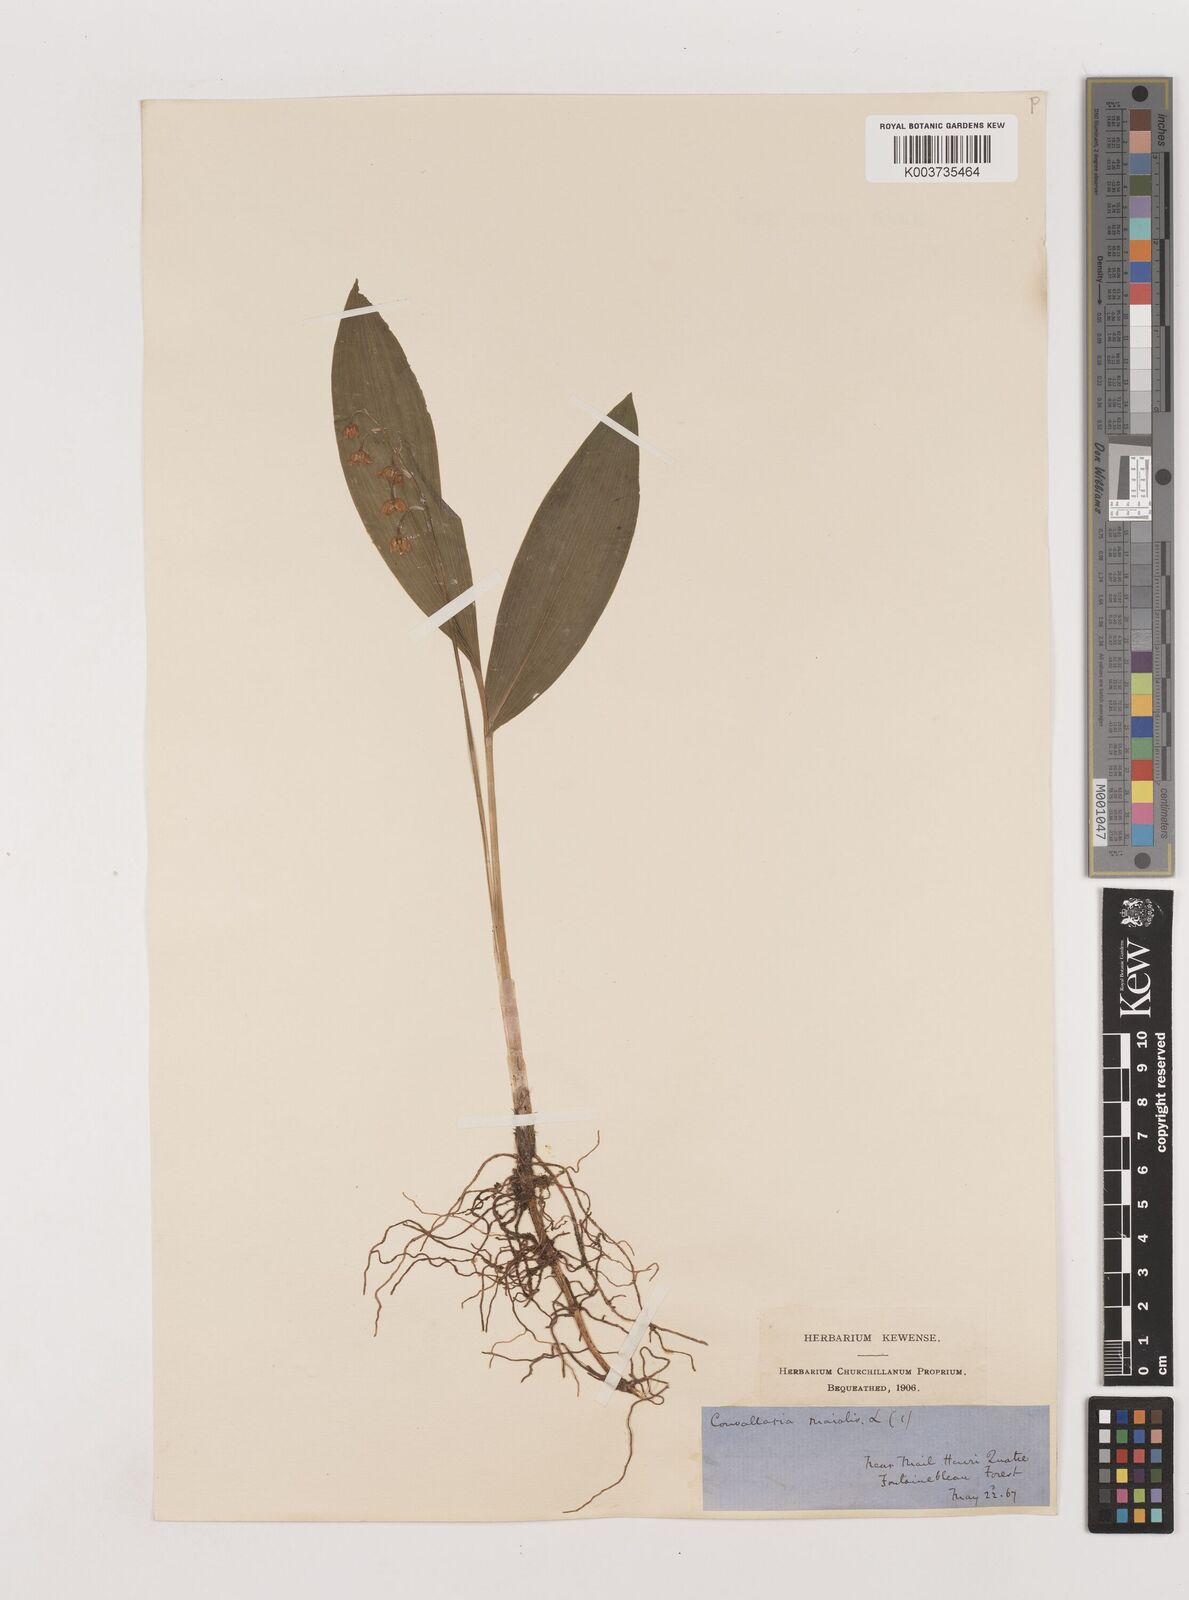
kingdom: Plantae
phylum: Tracheophyta
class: Liliopsida
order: Asparagales
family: Asparagaceae
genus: Convallaria
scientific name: Convallaria majalis
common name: Lily-of-the-valley
